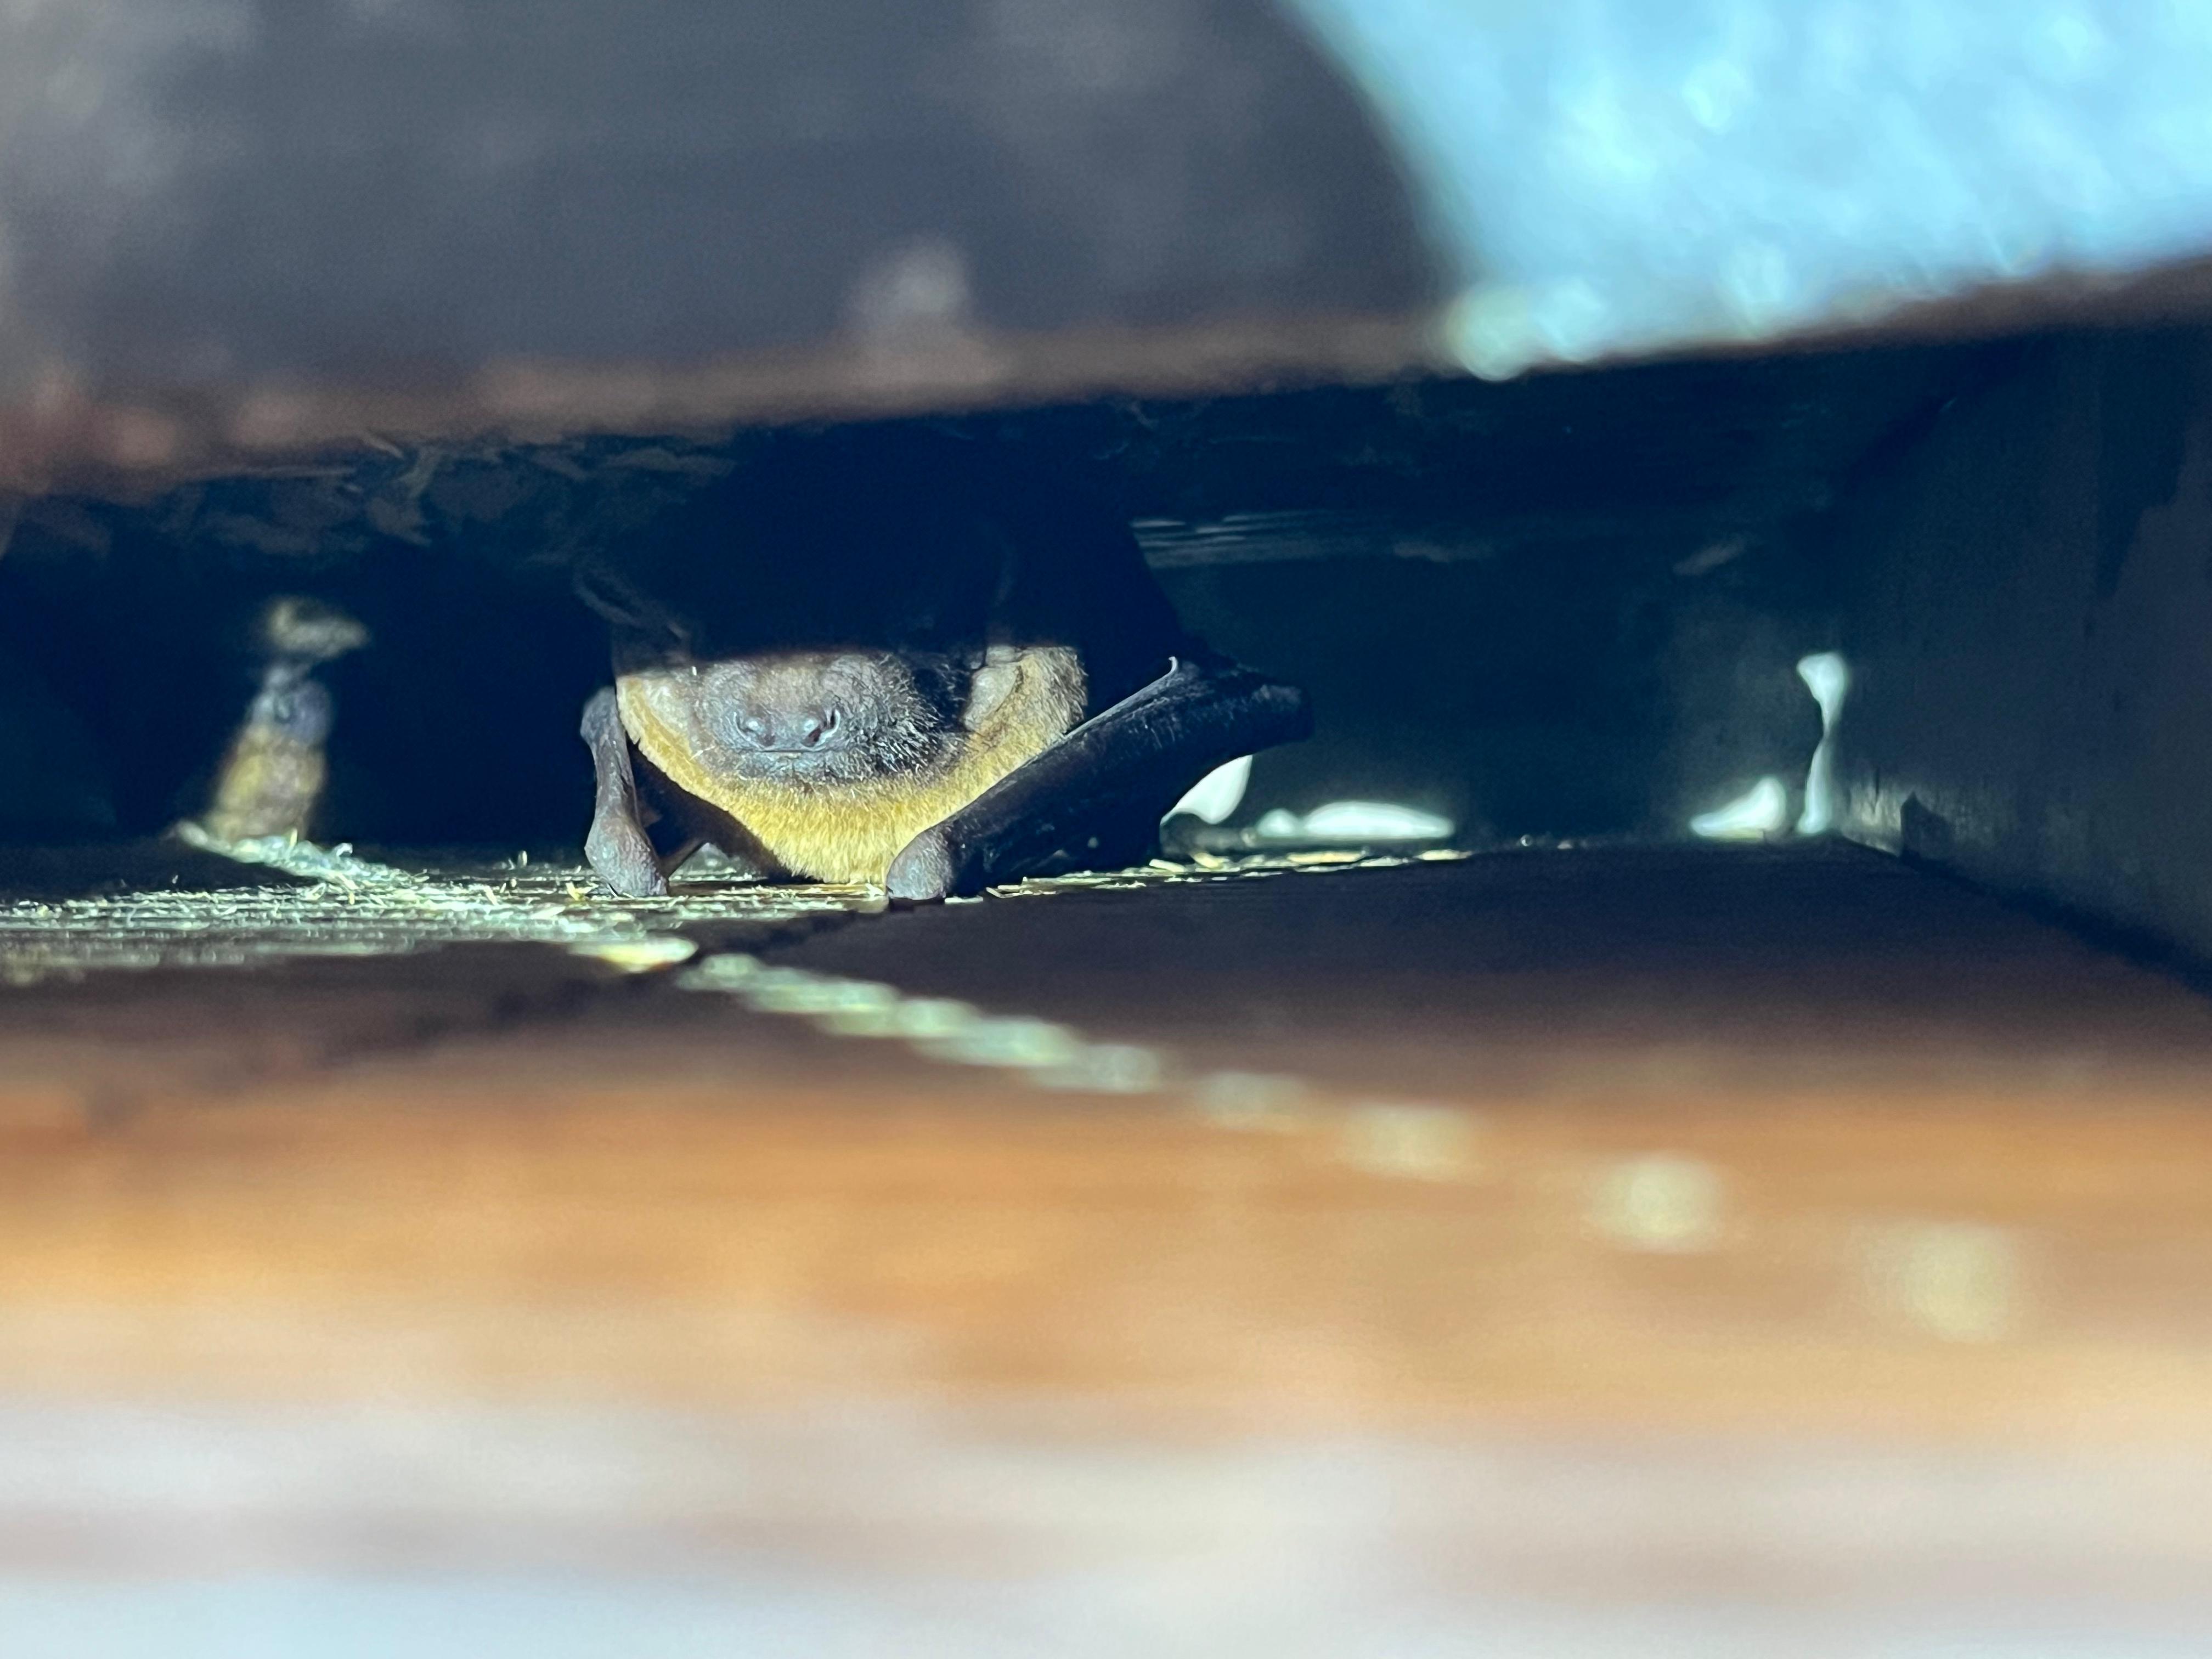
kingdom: Animalia
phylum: Chordata
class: Mammalia
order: Chiroptera
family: Vespertilionidae
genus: Nyctalus
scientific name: Nyctalus noctula
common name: Noctule
